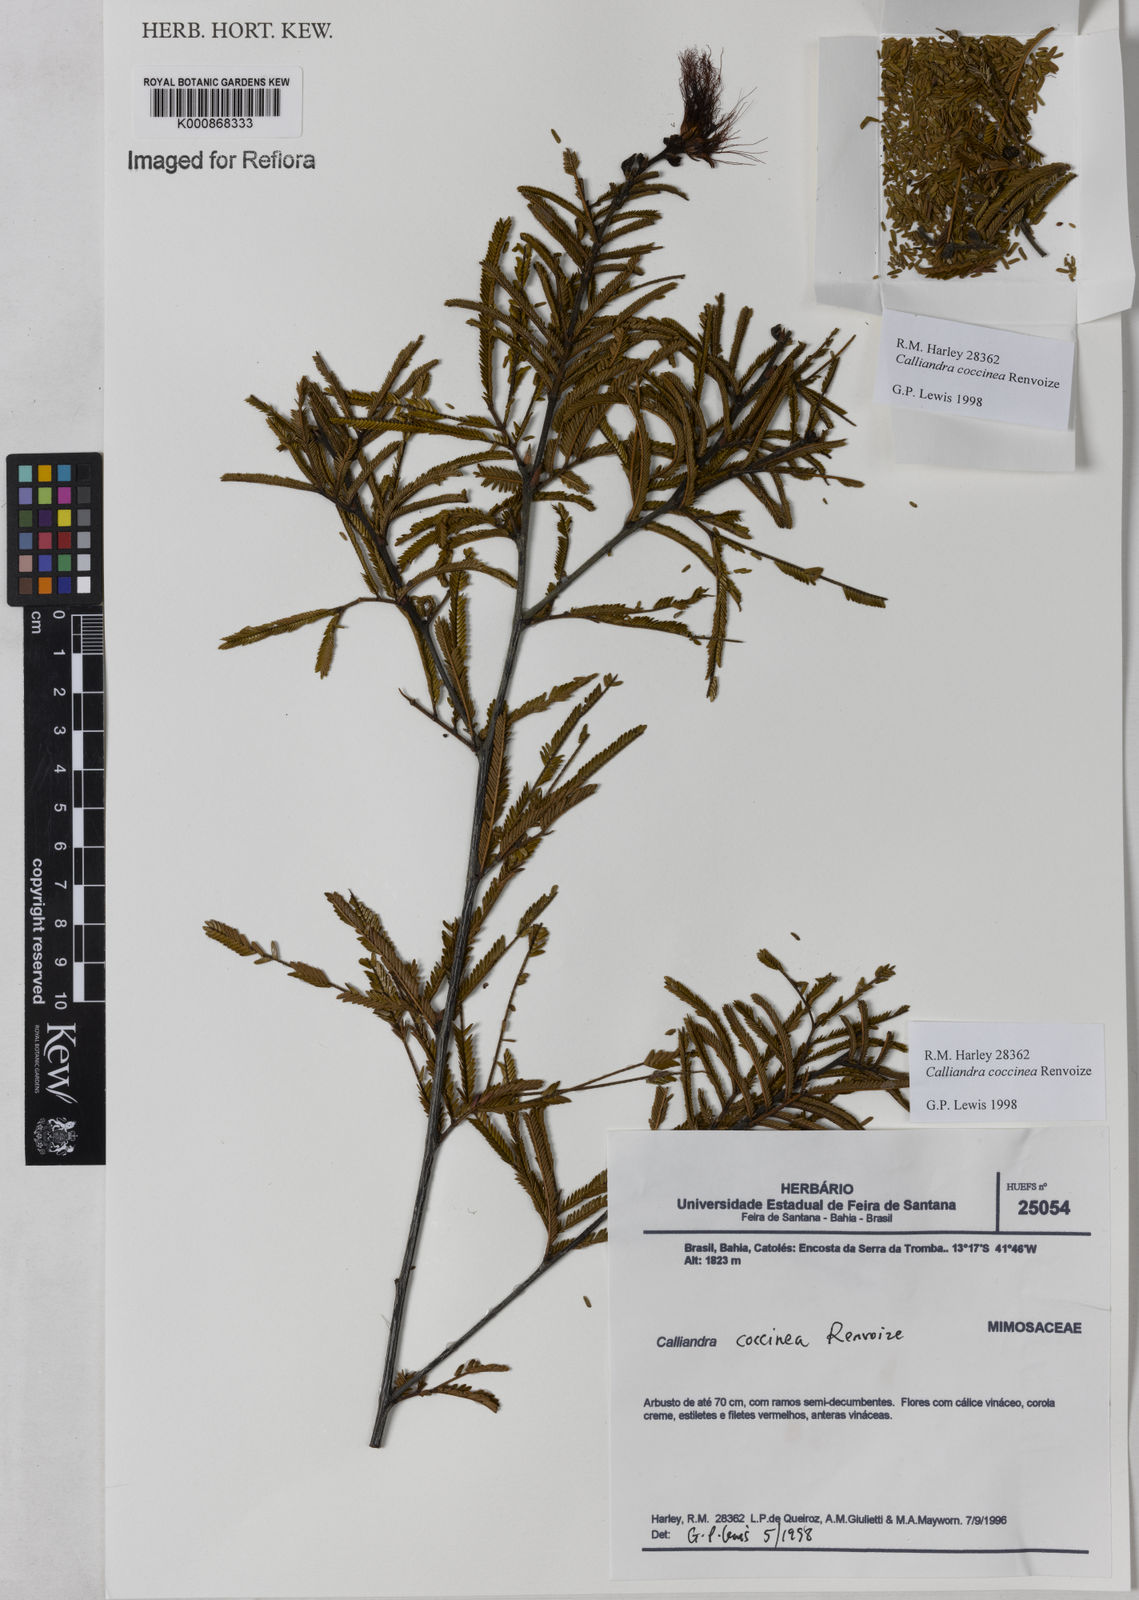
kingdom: Plantae
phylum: Tracheophyta
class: Magnoliopsida
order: Fabales
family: Fabaceae
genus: Calliandra
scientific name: Calliandra coccinea
